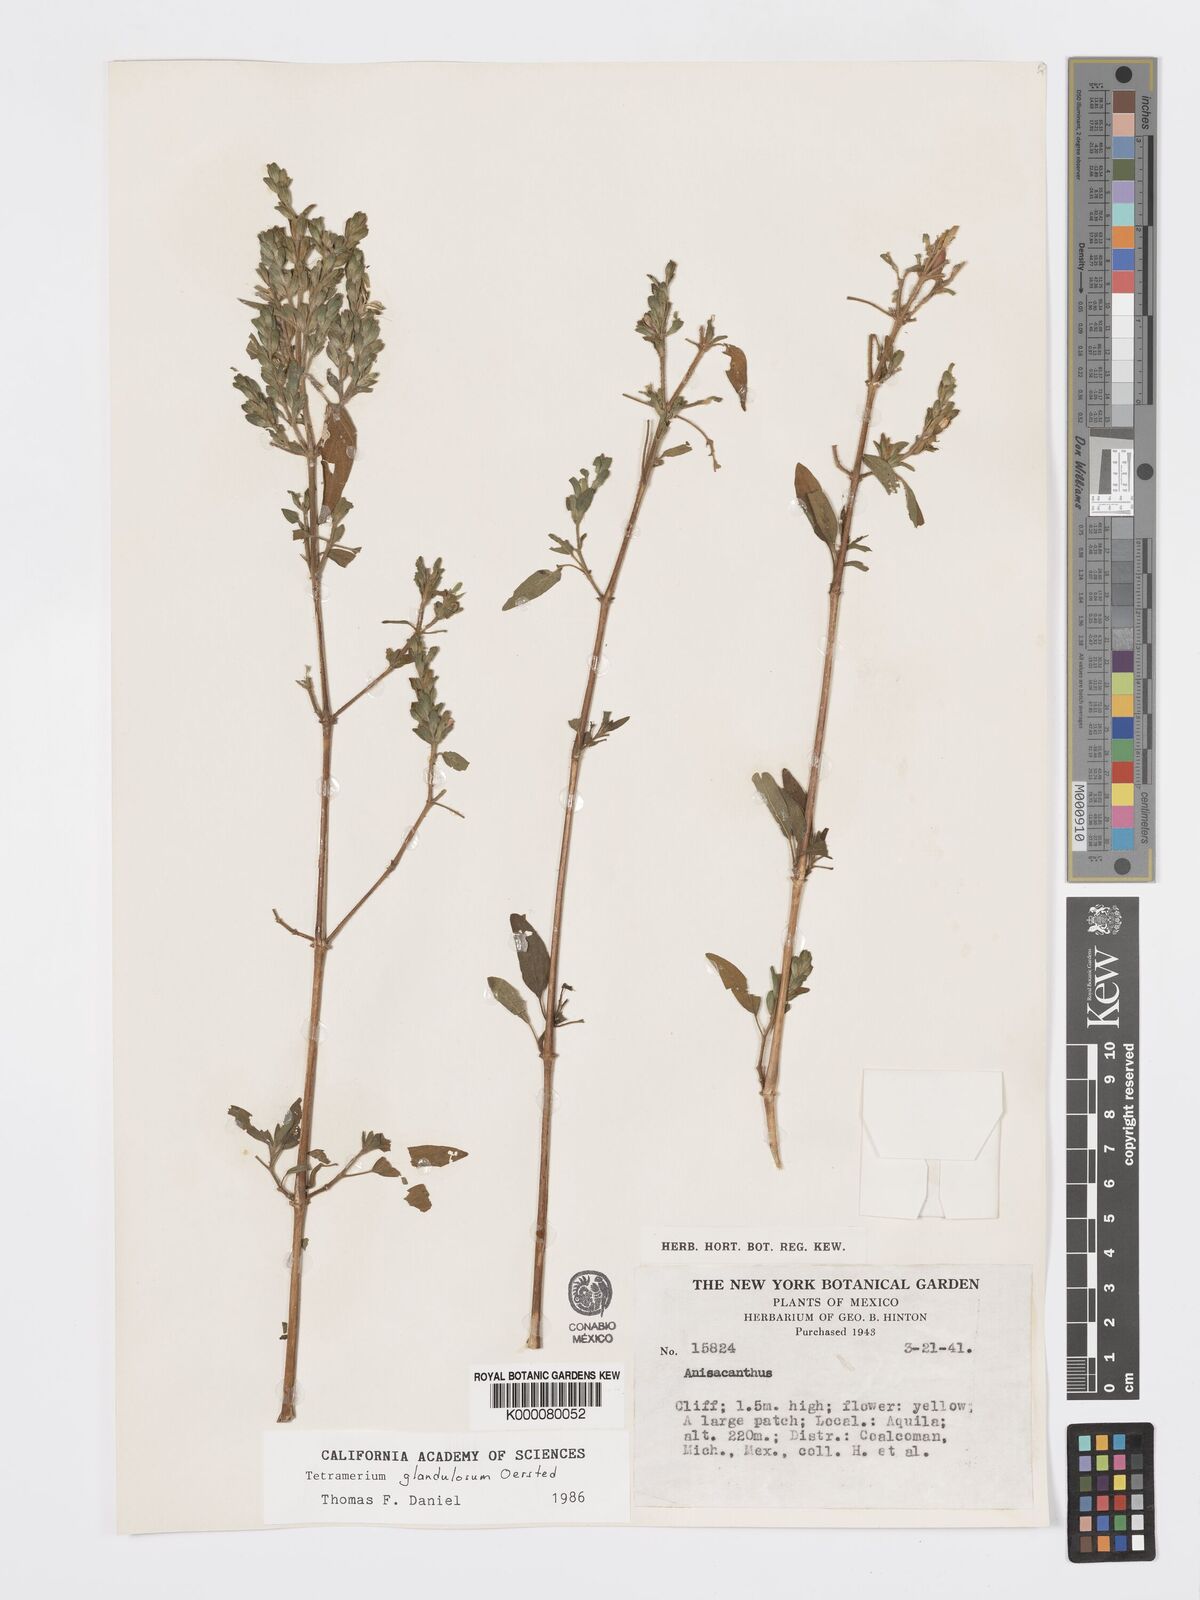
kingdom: Plantae
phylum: Tracheophyta
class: Magnoliopsida
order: Lamiales
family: Acanthaceae
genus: Tetramerium
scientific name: Tetramerium glandulosum
